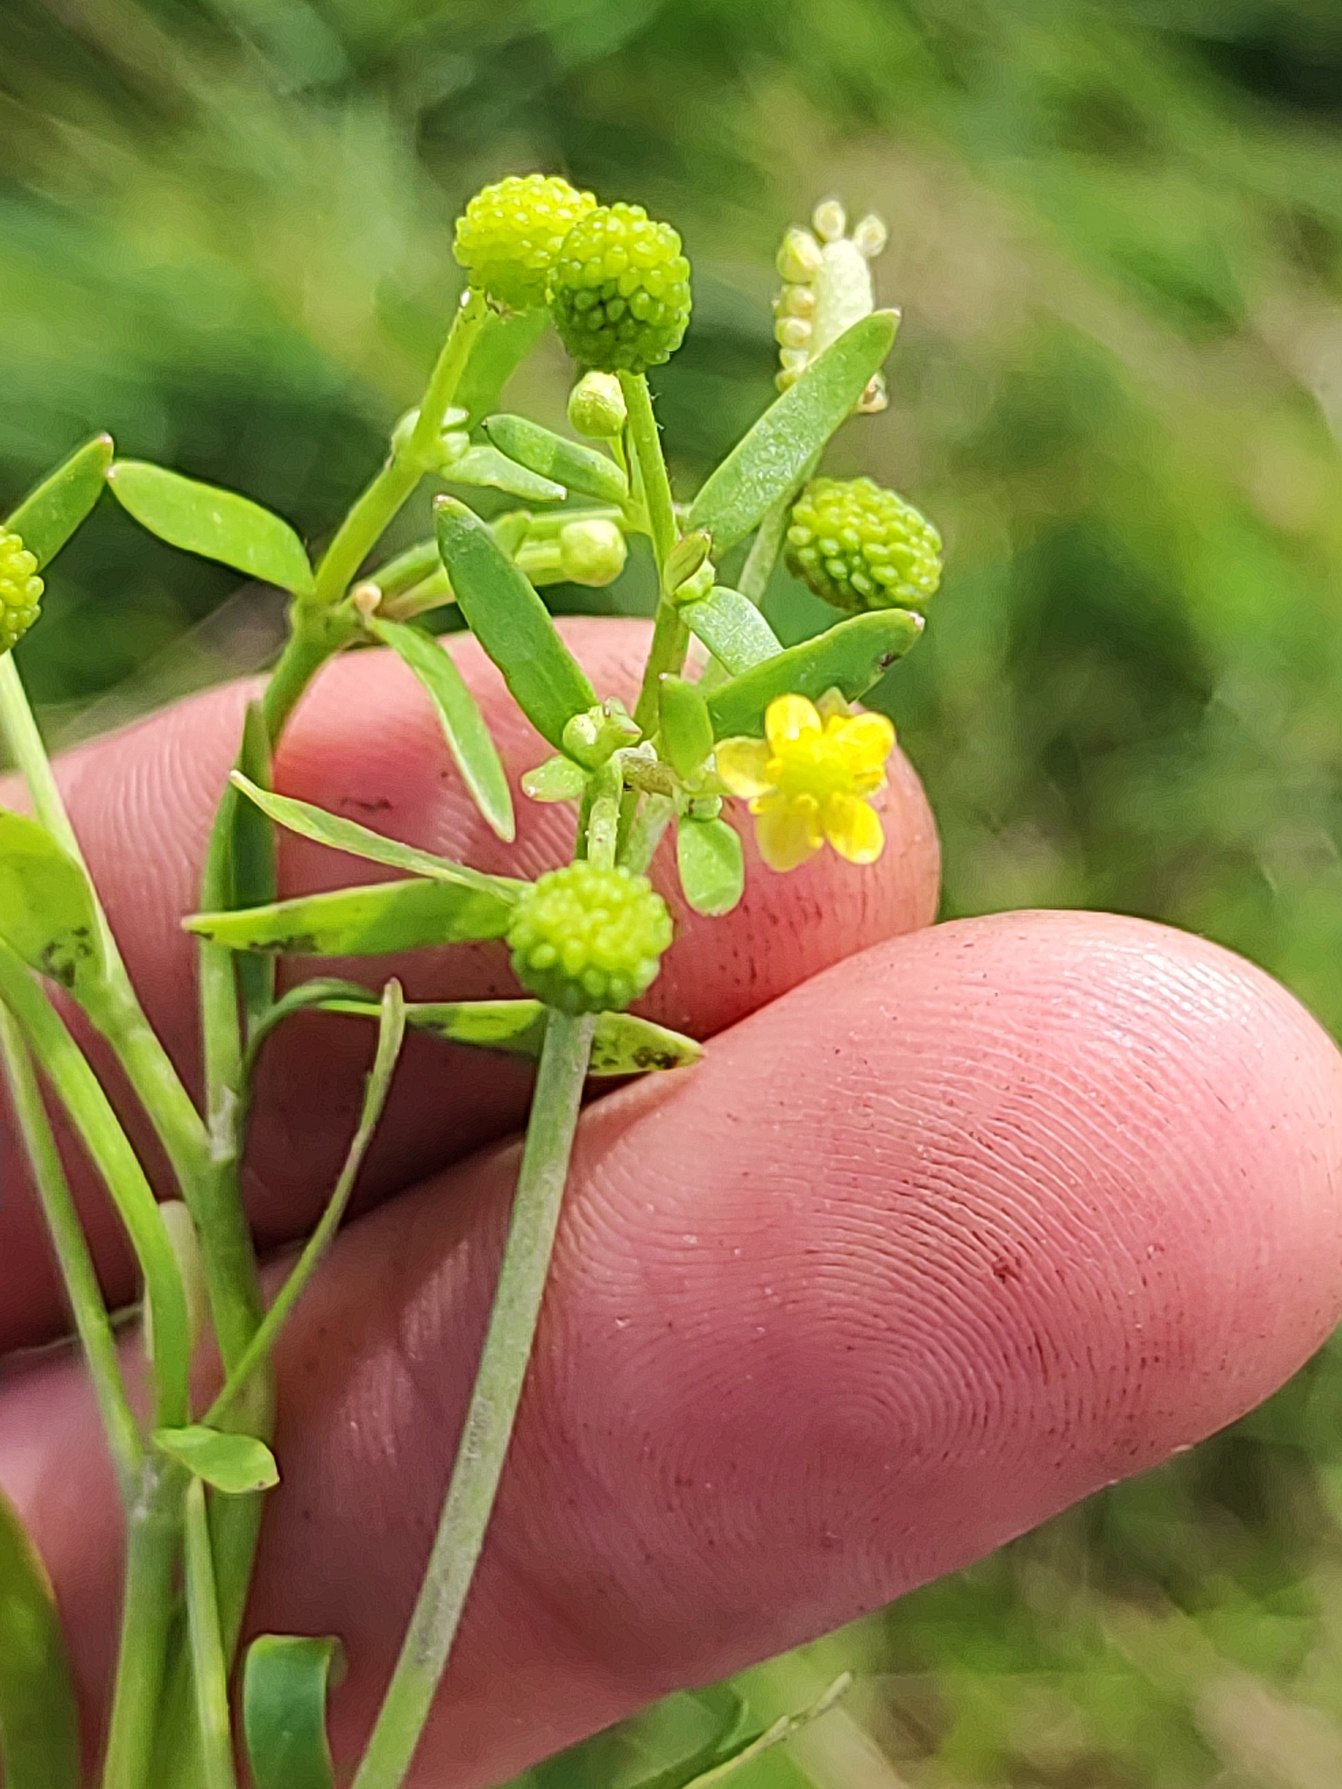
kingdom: Plantae
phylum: Tracheophyta
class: Magnoliopsida
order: Ranunculales
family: Ranunculaceae
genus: Ranunculus
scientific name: Ranunculus sceleratus
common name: Tigger-ranunkel
